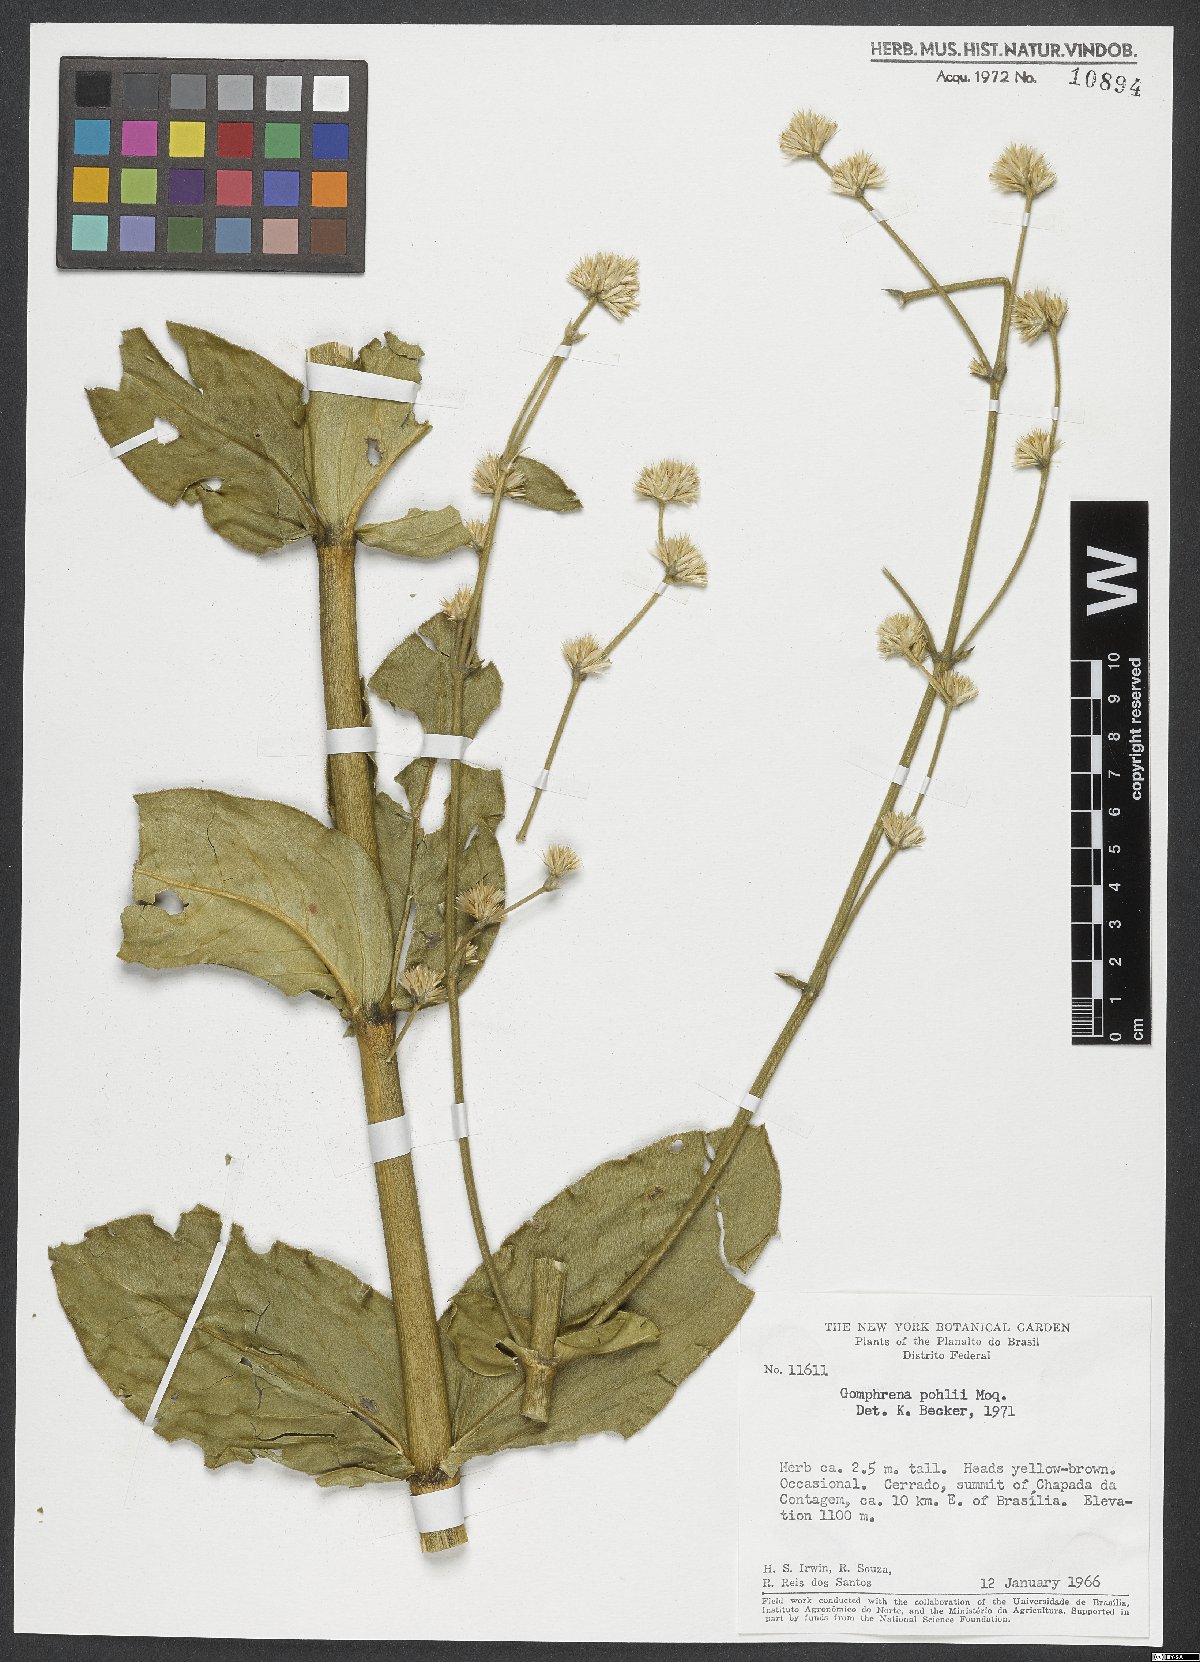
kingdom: Plantae
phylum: Tracheophyta
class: Magnoliopsida
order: Caryophyllales
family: Amaranthaceae
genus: Gomphrena
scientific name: Gomphrena pohlii
